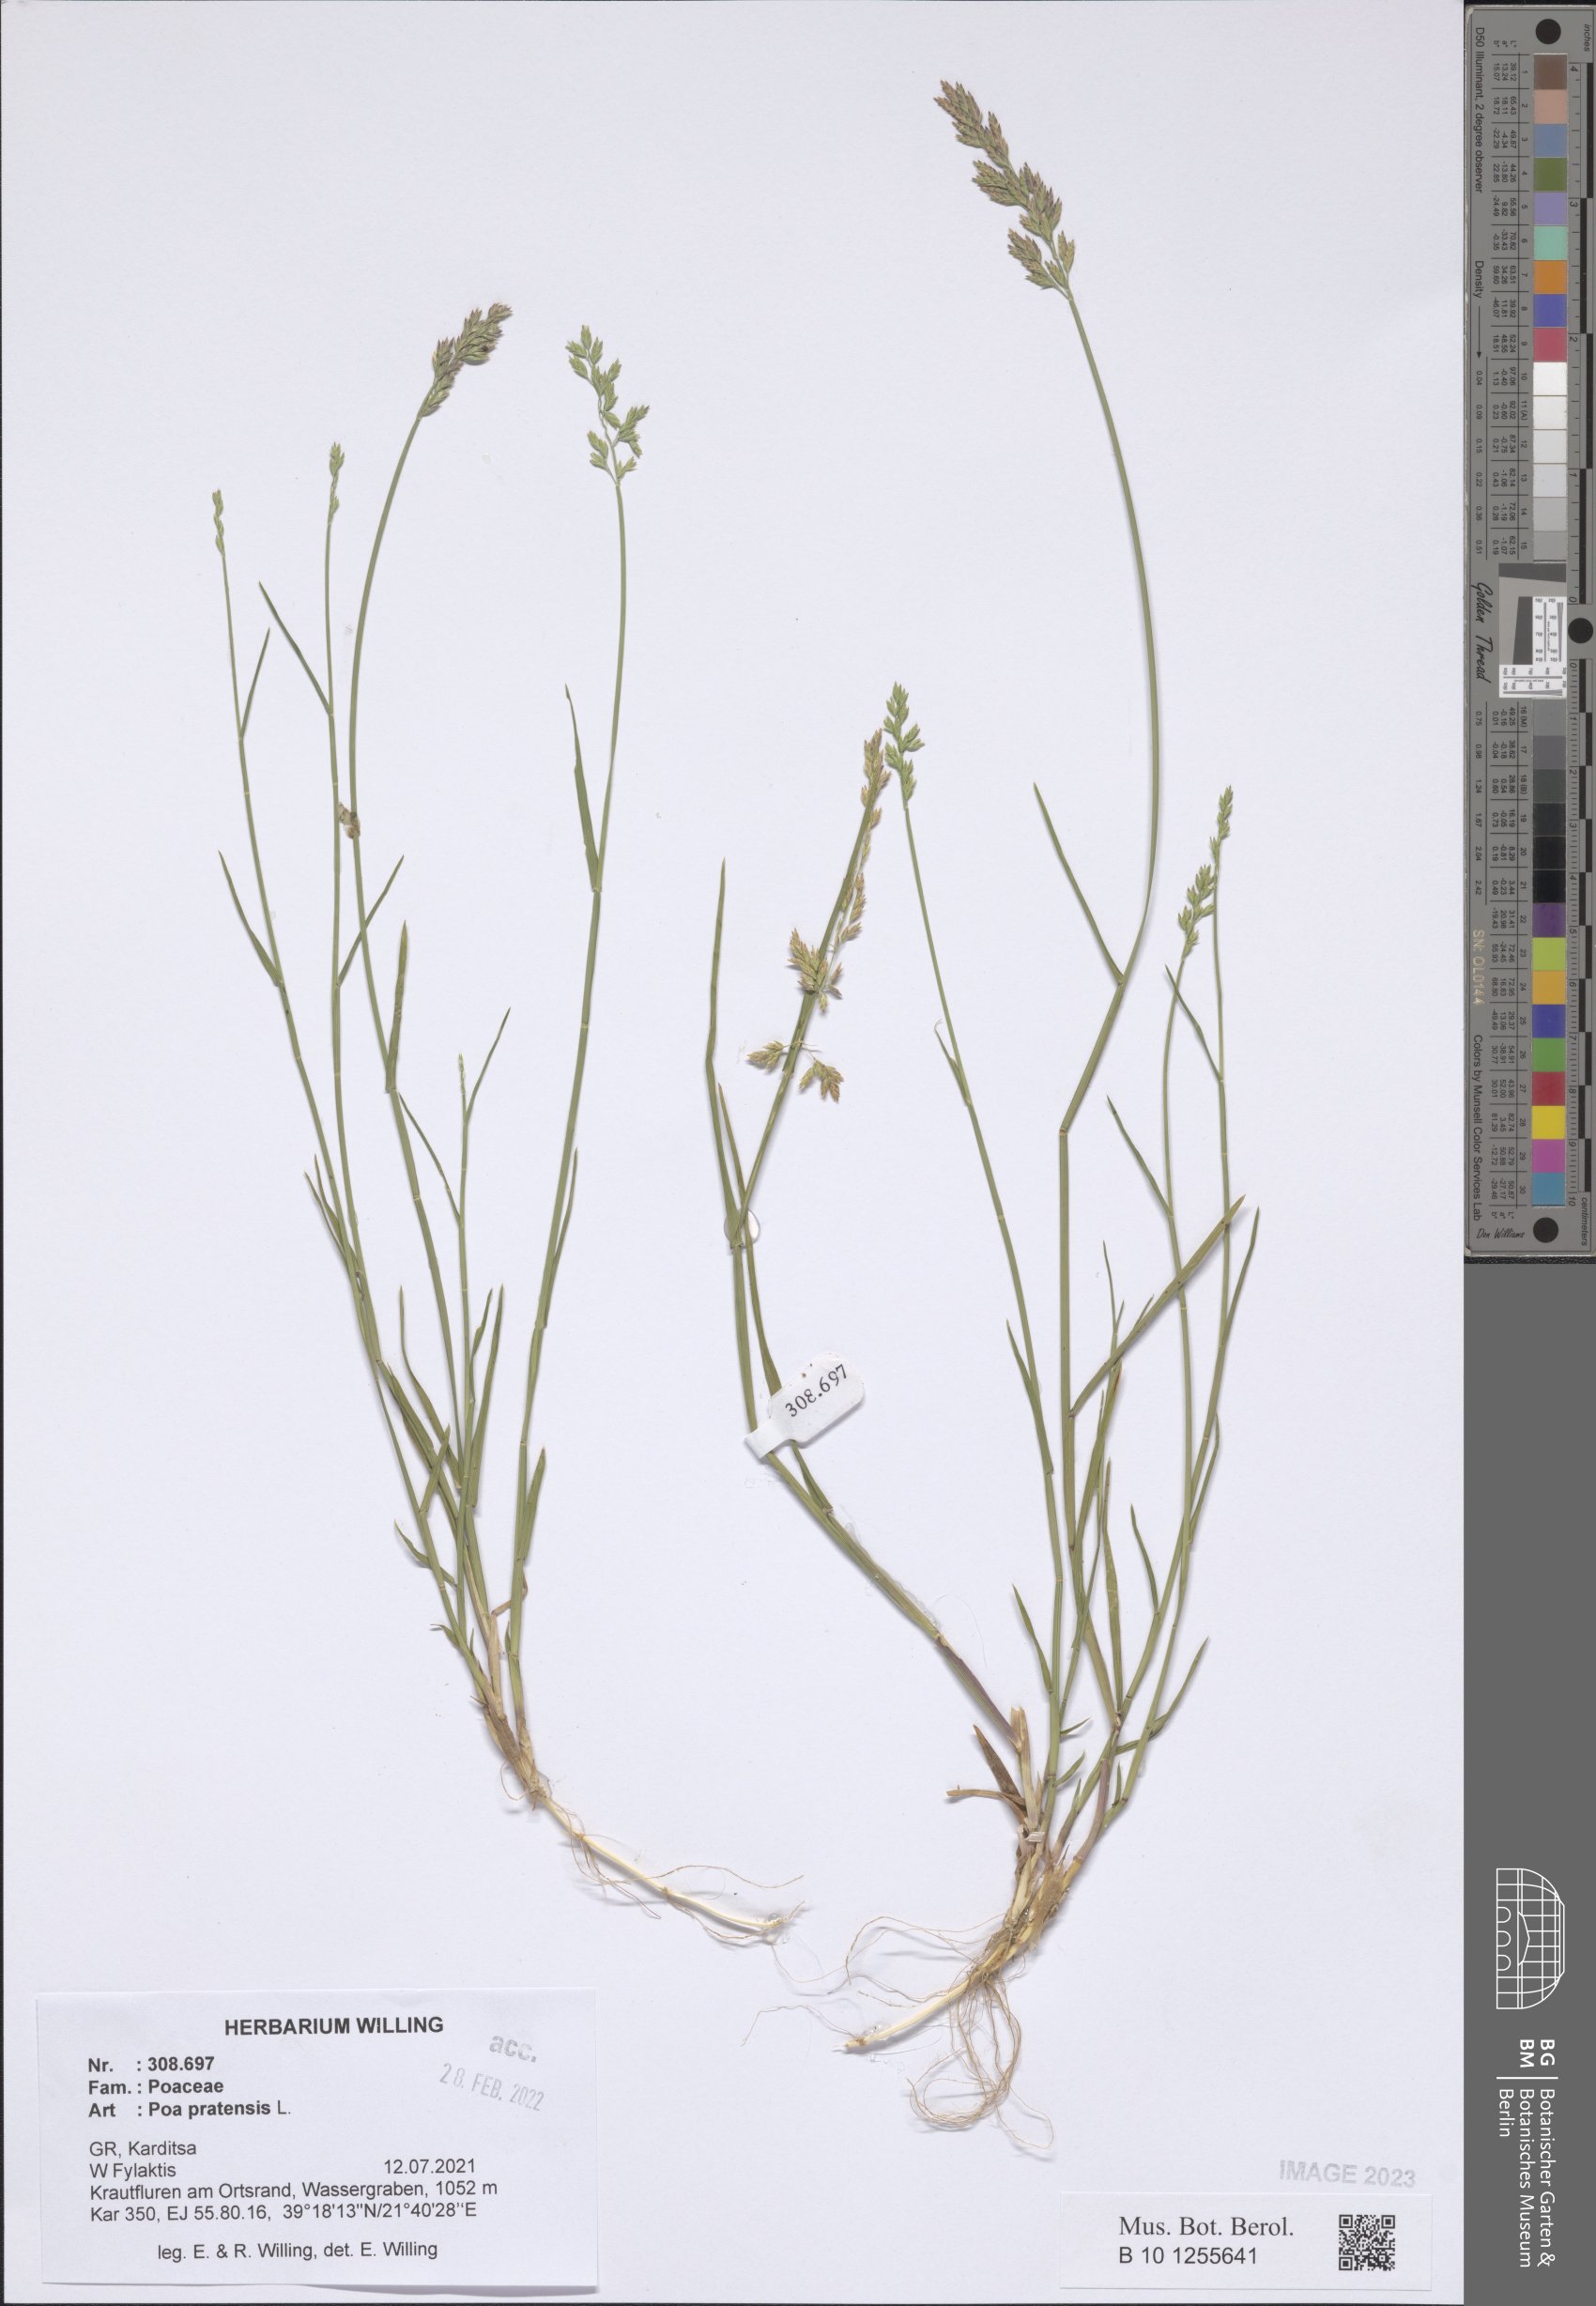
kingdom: Plantae
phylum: Tracheophyta
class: Liliopsida
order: Poales
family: Poaceae
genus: Poa
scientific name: Poa pratensis
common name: Kentucky bluegrass
